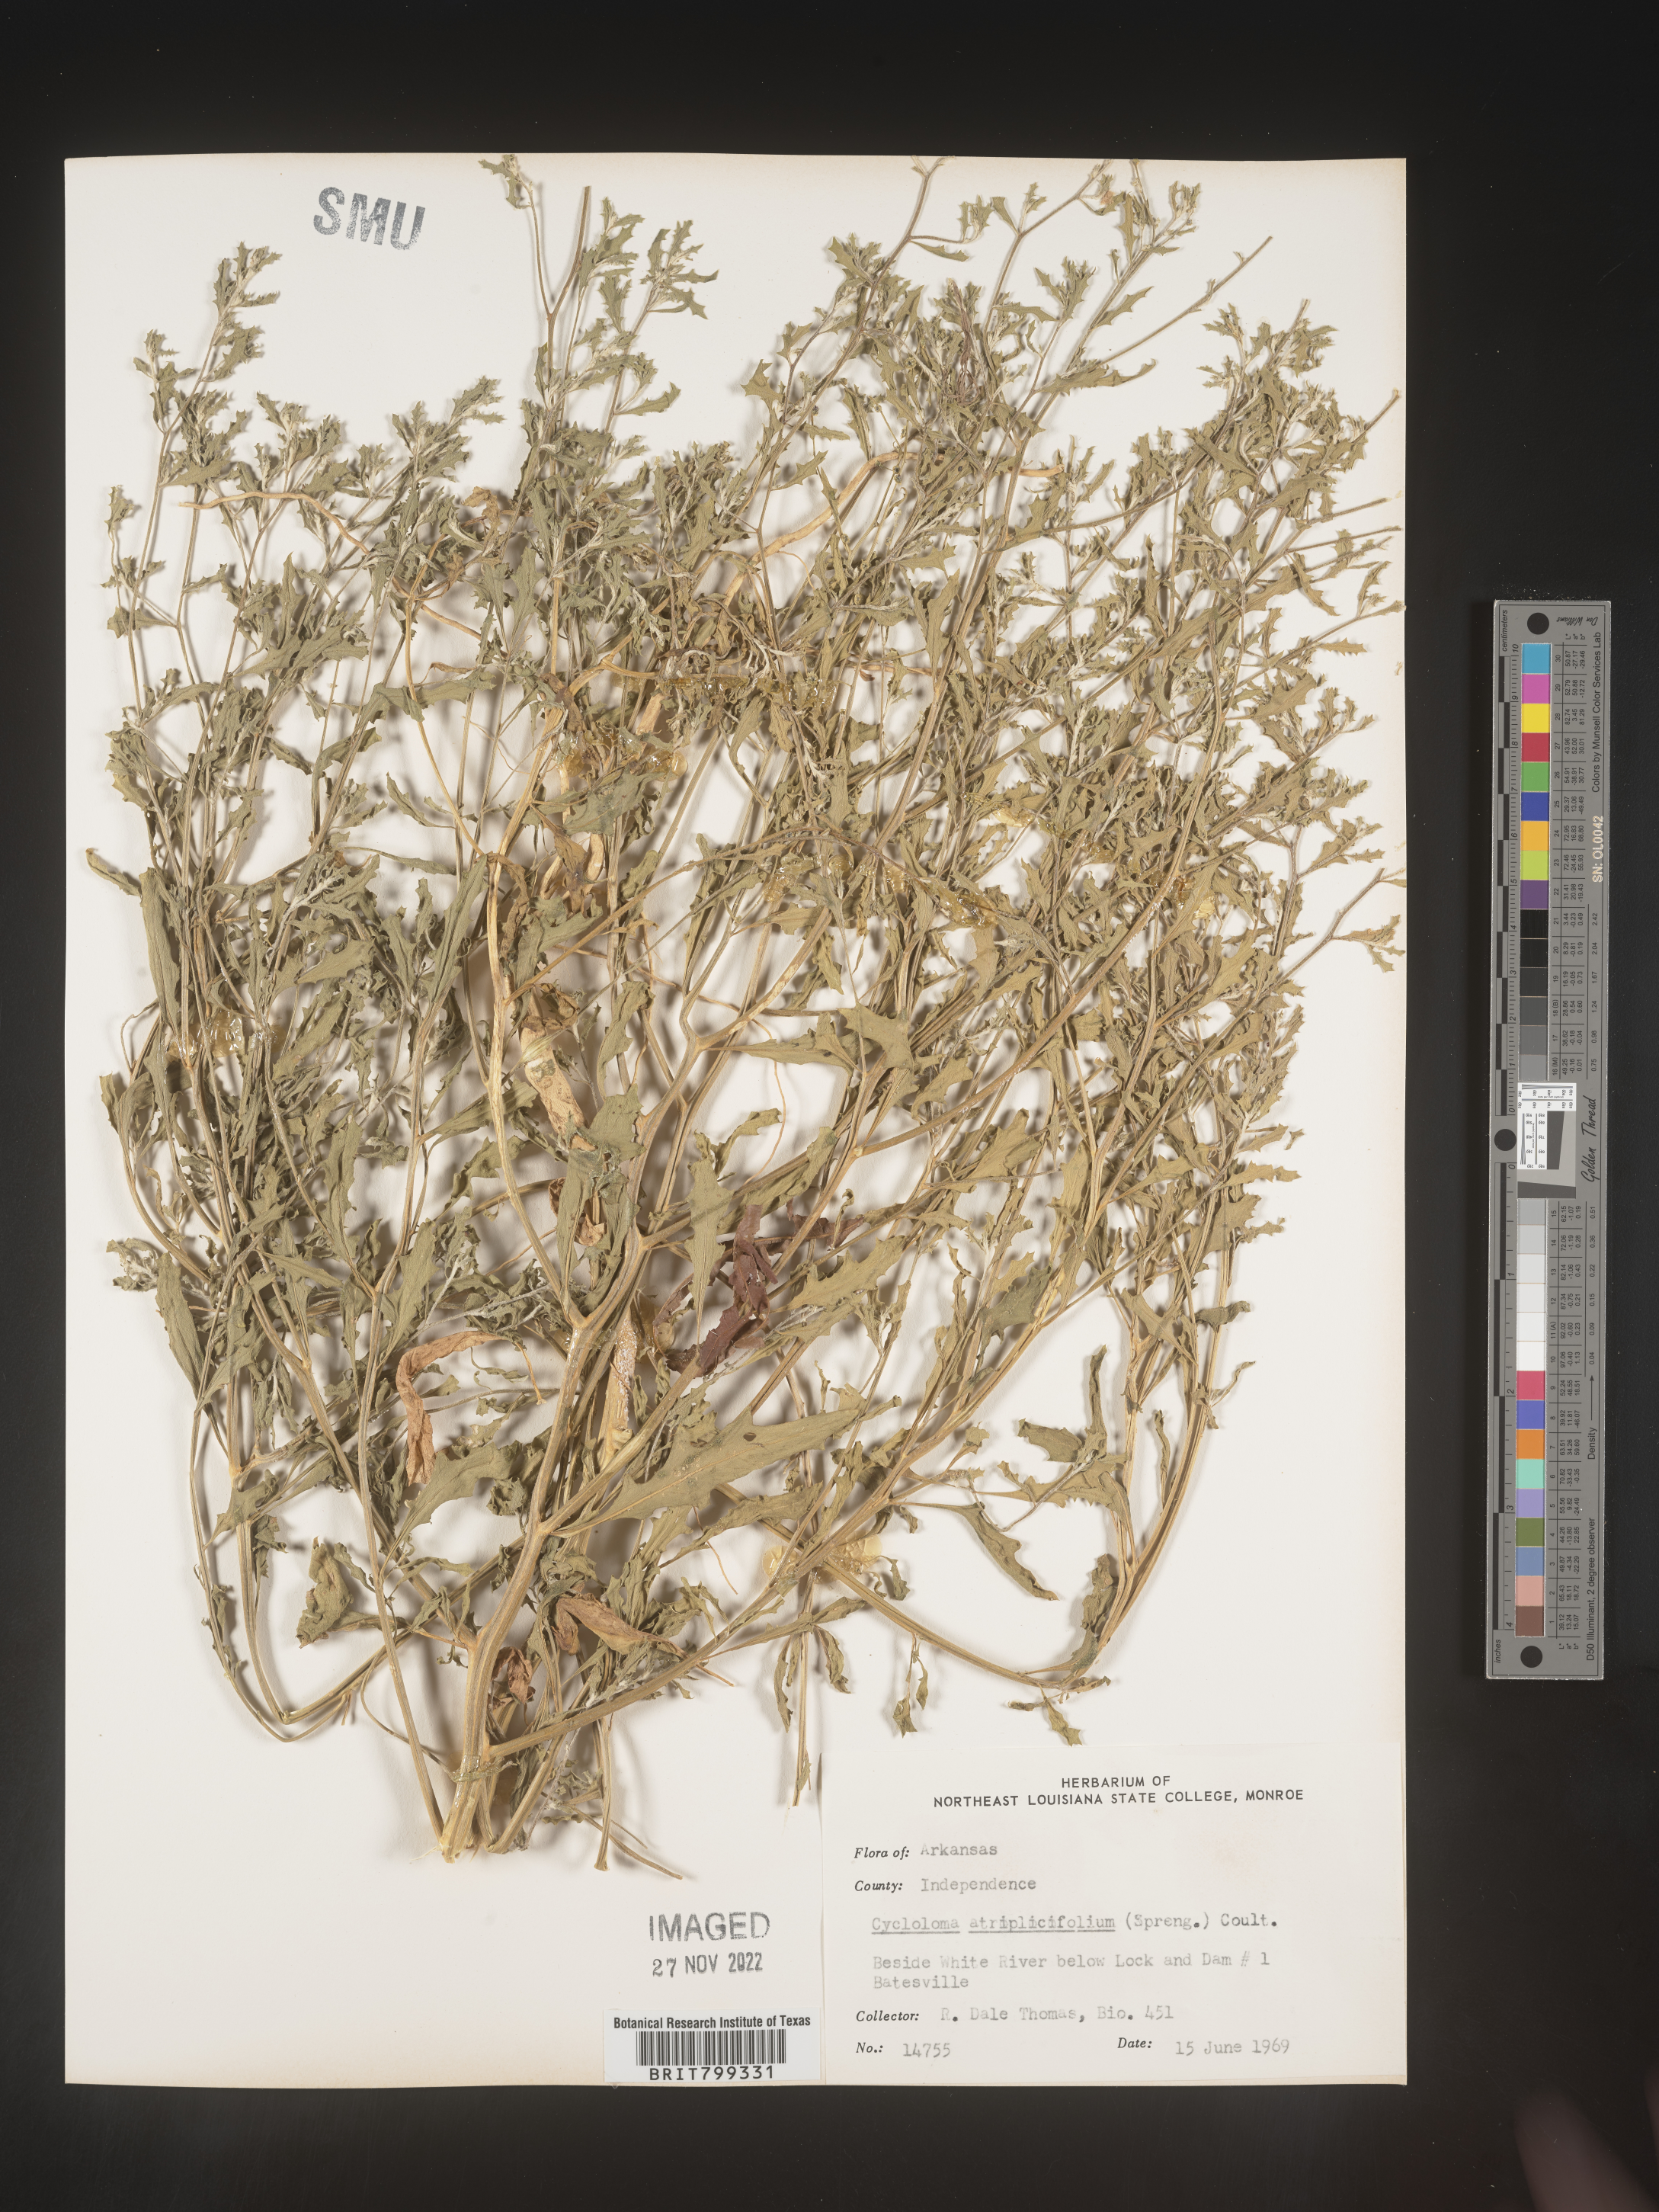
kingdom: Plantae
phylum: Tracheophyta
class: Magnoliopsida
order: Caryophyllales
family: Amaranthaceae
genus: Dysphania
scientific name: Dysphania atriplicifolia
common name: Plains tumbleweed
